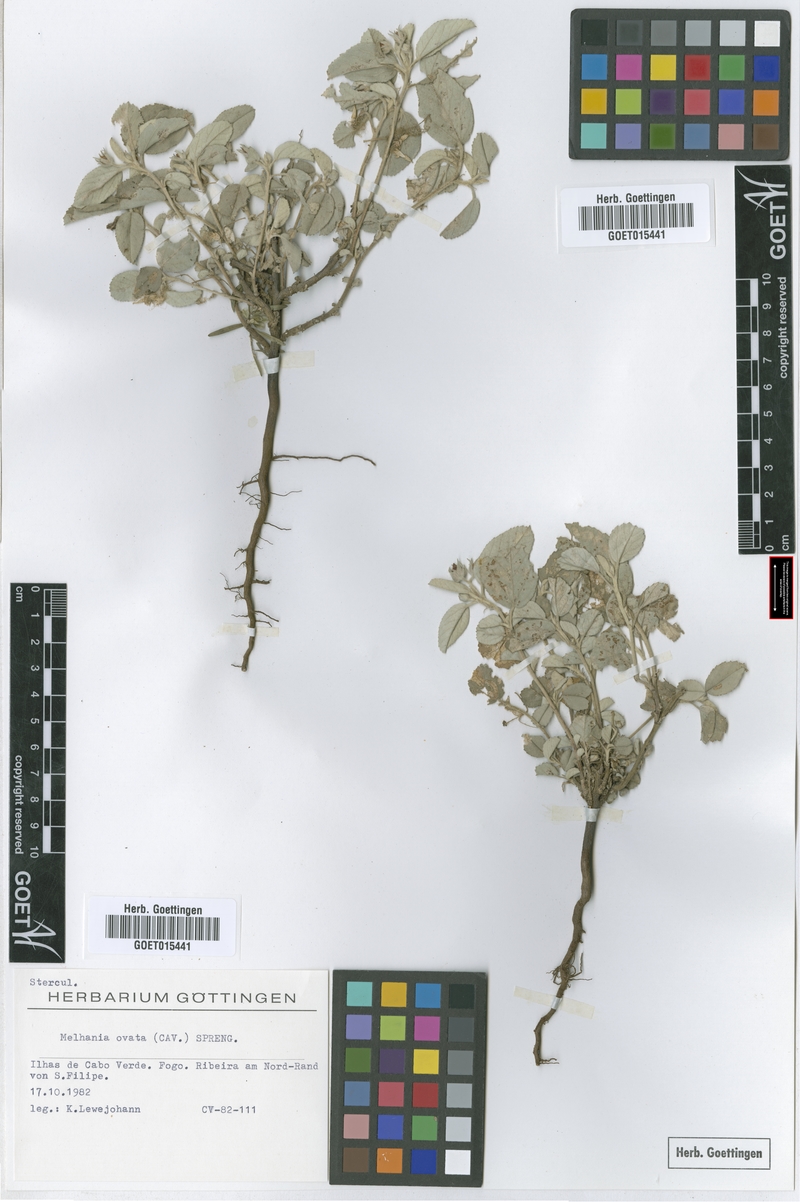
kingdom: Plantae
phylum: Tracheophyta
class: Magnoliopsida
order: Malvales
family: Malvaceae
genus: Melhania
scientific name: Melhania ovata
